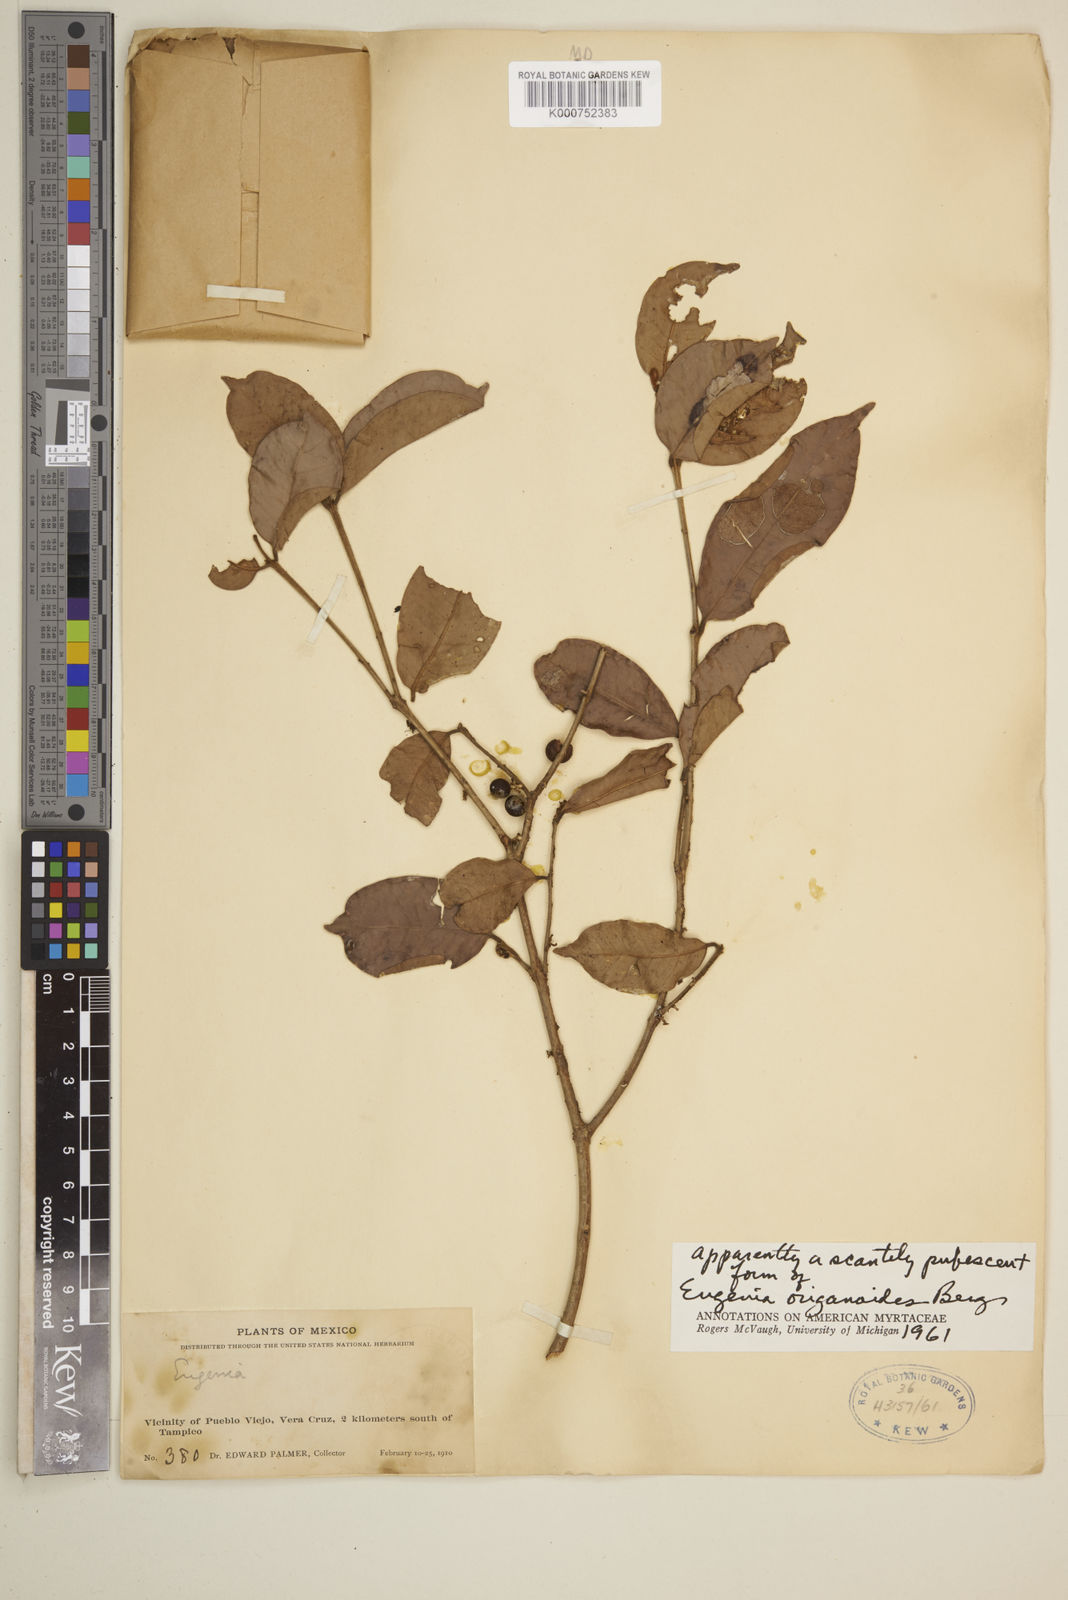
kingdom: Plantae
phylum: Tracheophyta
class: Magnoliopsida
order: Myrtales
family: Myrtaceae
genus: Eugenia
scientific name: Eugenia venezuelensis
